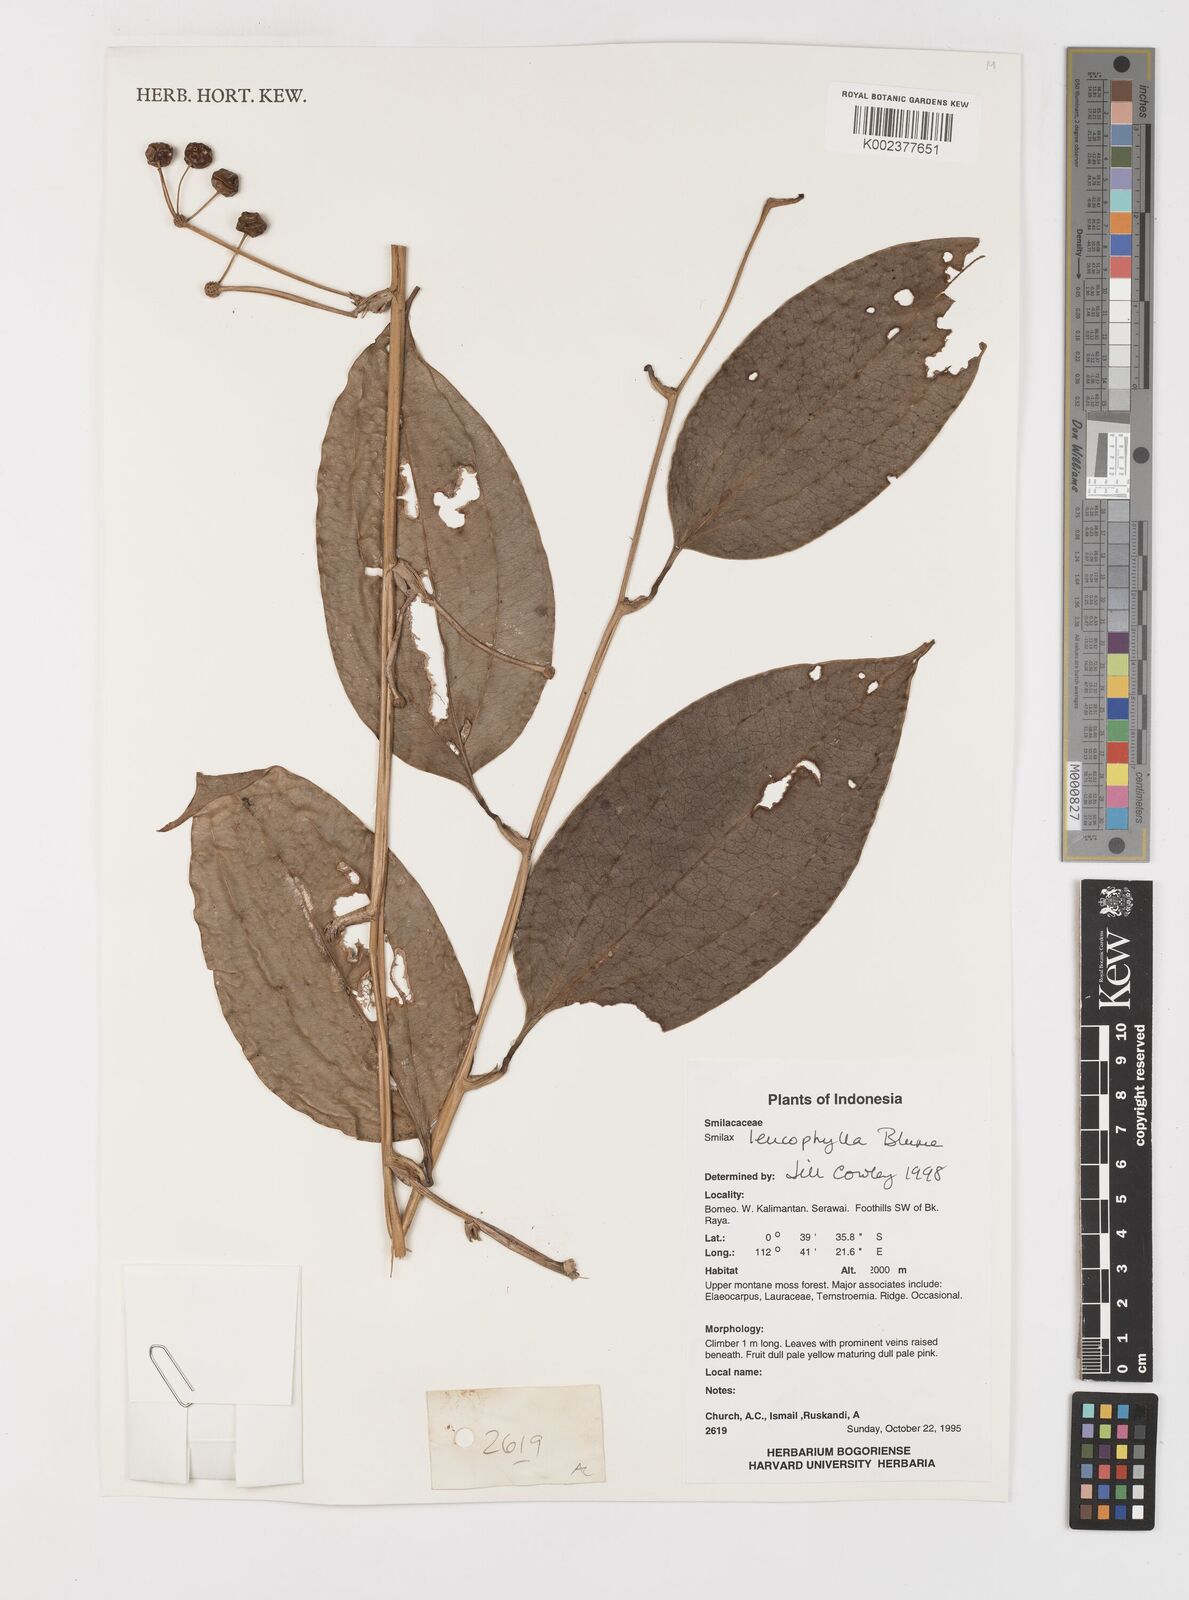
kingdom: Plantae
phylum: Tracheophyta
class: Liliopsida
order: Liliales
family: Smilacaceae
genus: Smilax
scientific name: Smilax leucophylla
